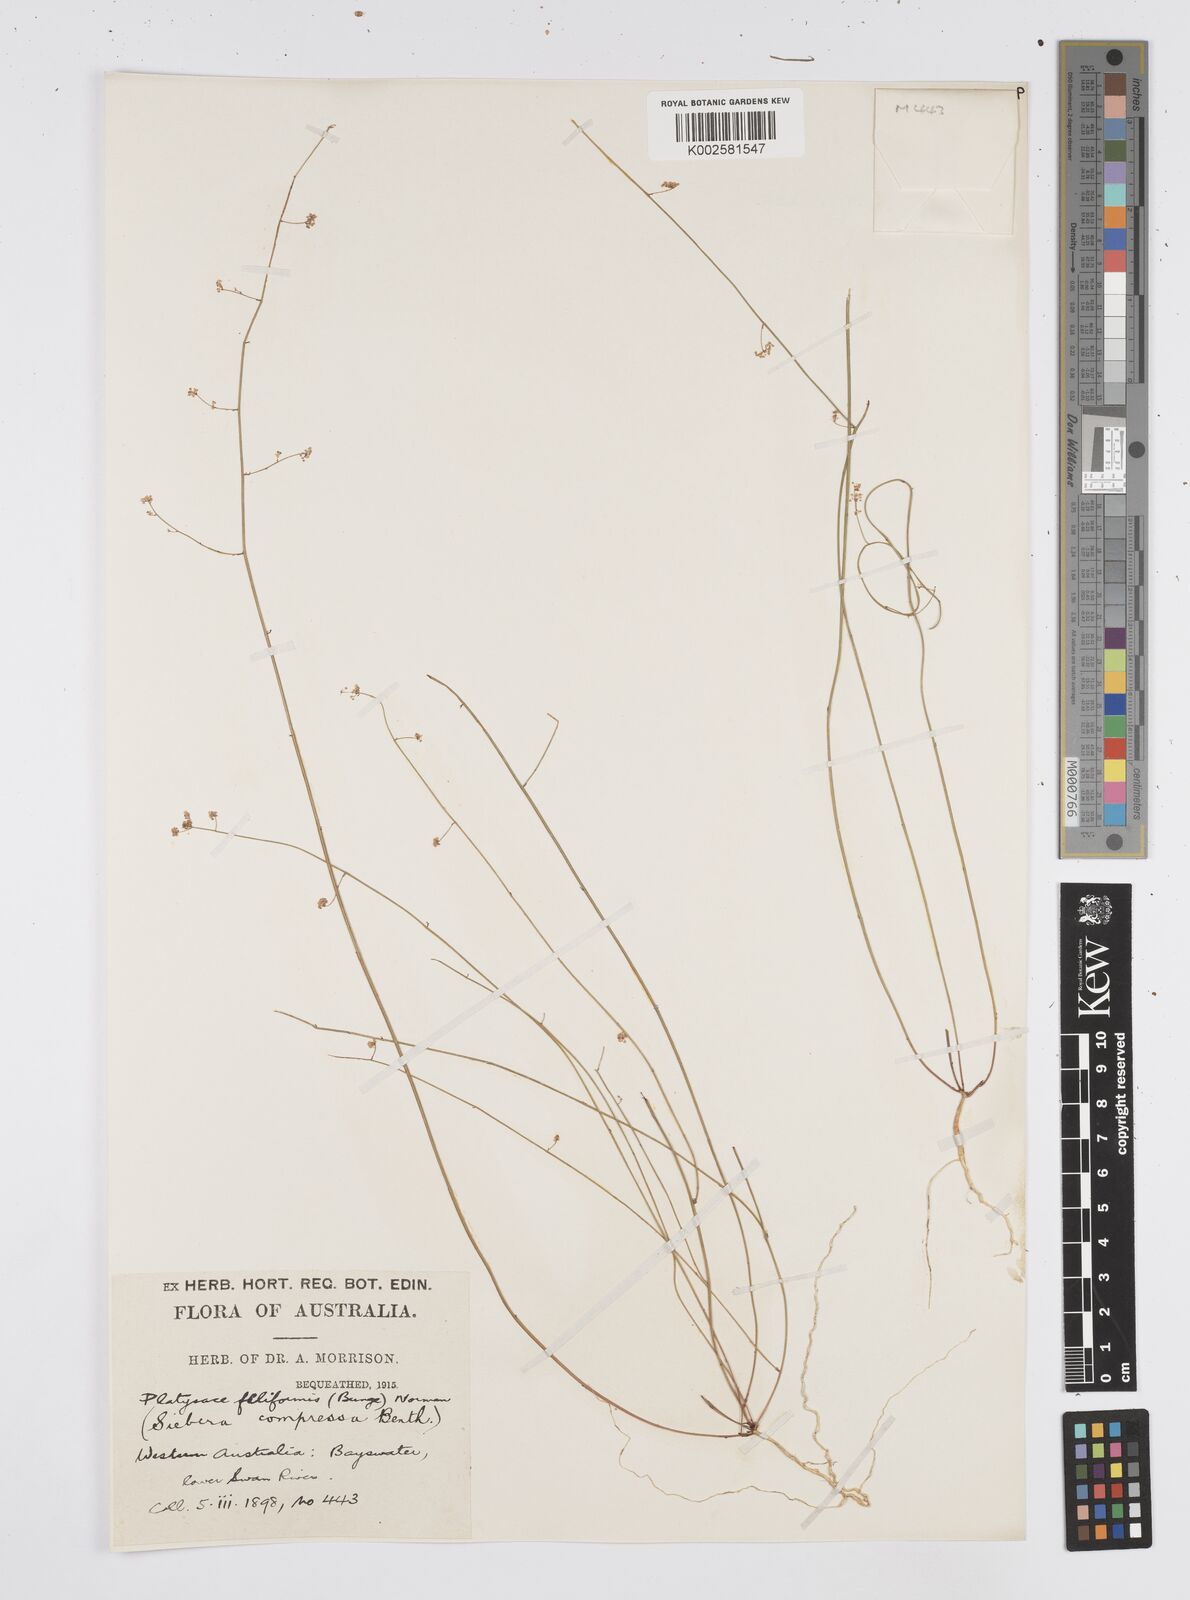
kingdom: Plantae
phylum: Tracheophyta
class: Magnoliopsida
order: Apiales
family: Apiaceae
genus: Centella
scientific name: Centella
